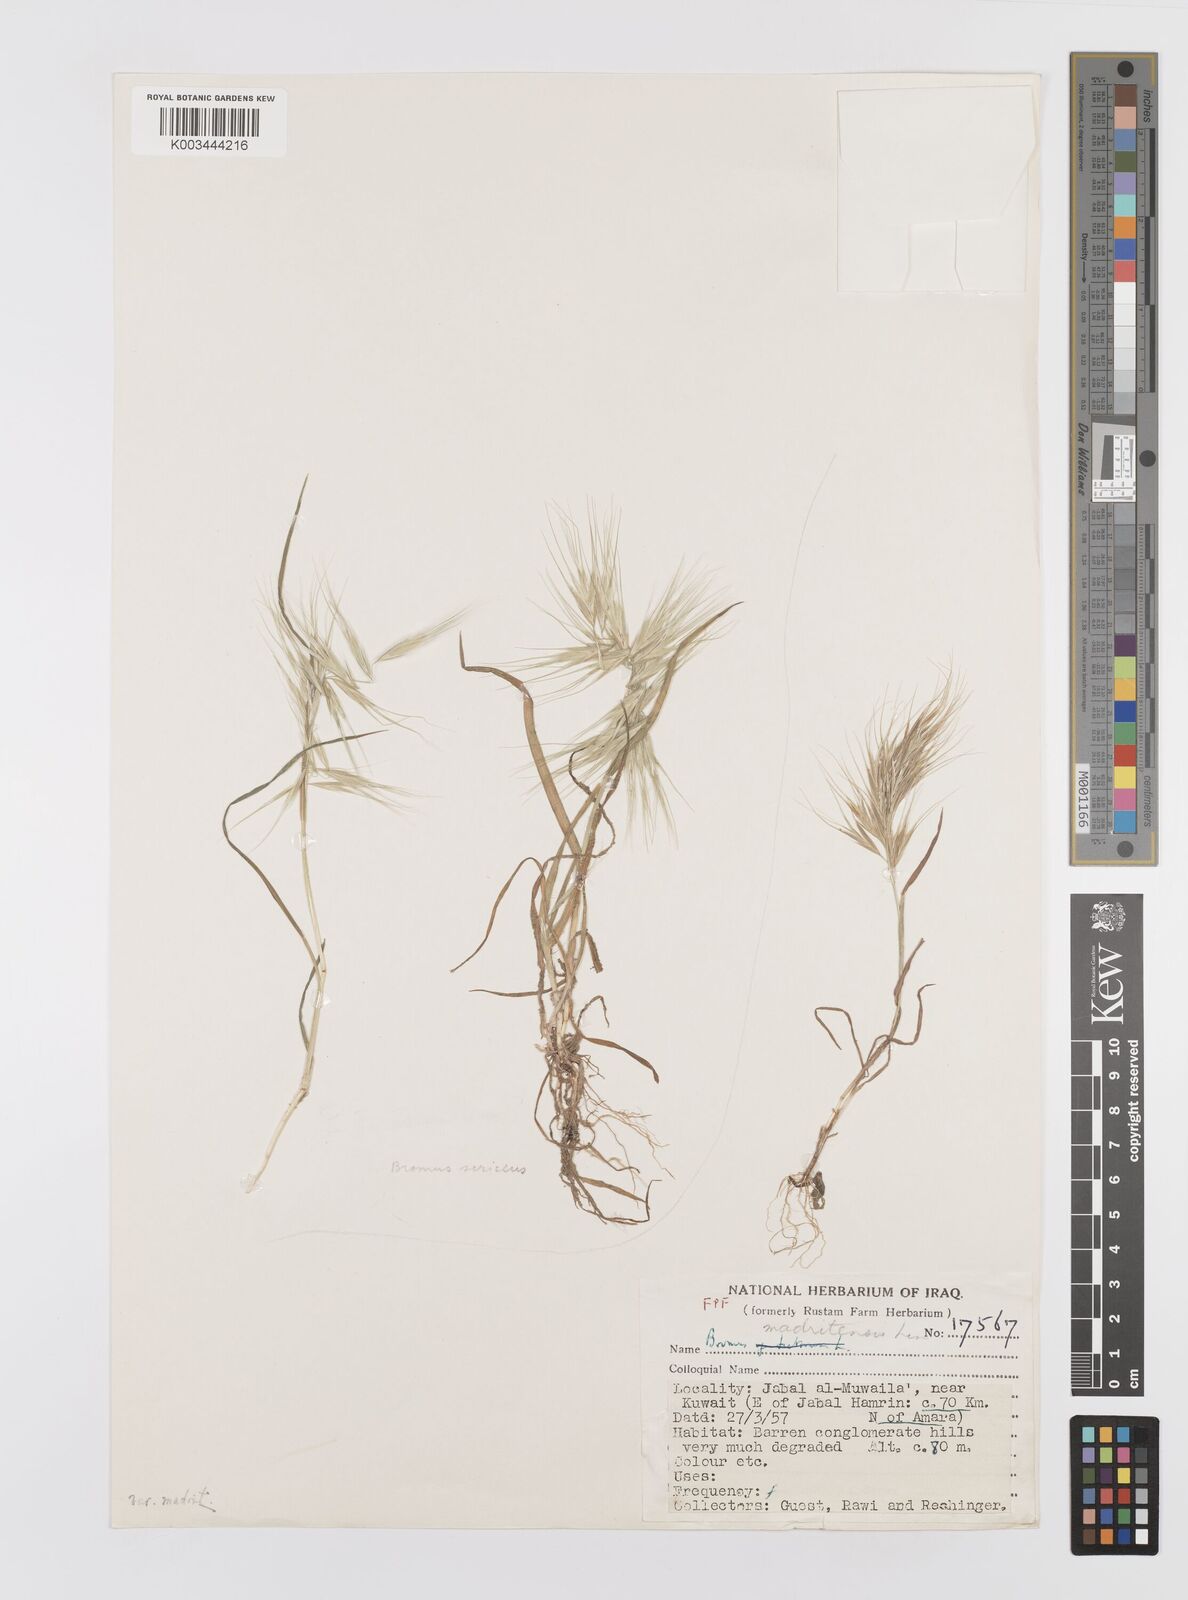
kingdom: Plantae
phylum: Tracheophyta
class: Liliopsida
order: Poales
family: Poaceae
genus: Bromus
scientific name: Bromus madritensis
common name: Compact brome
